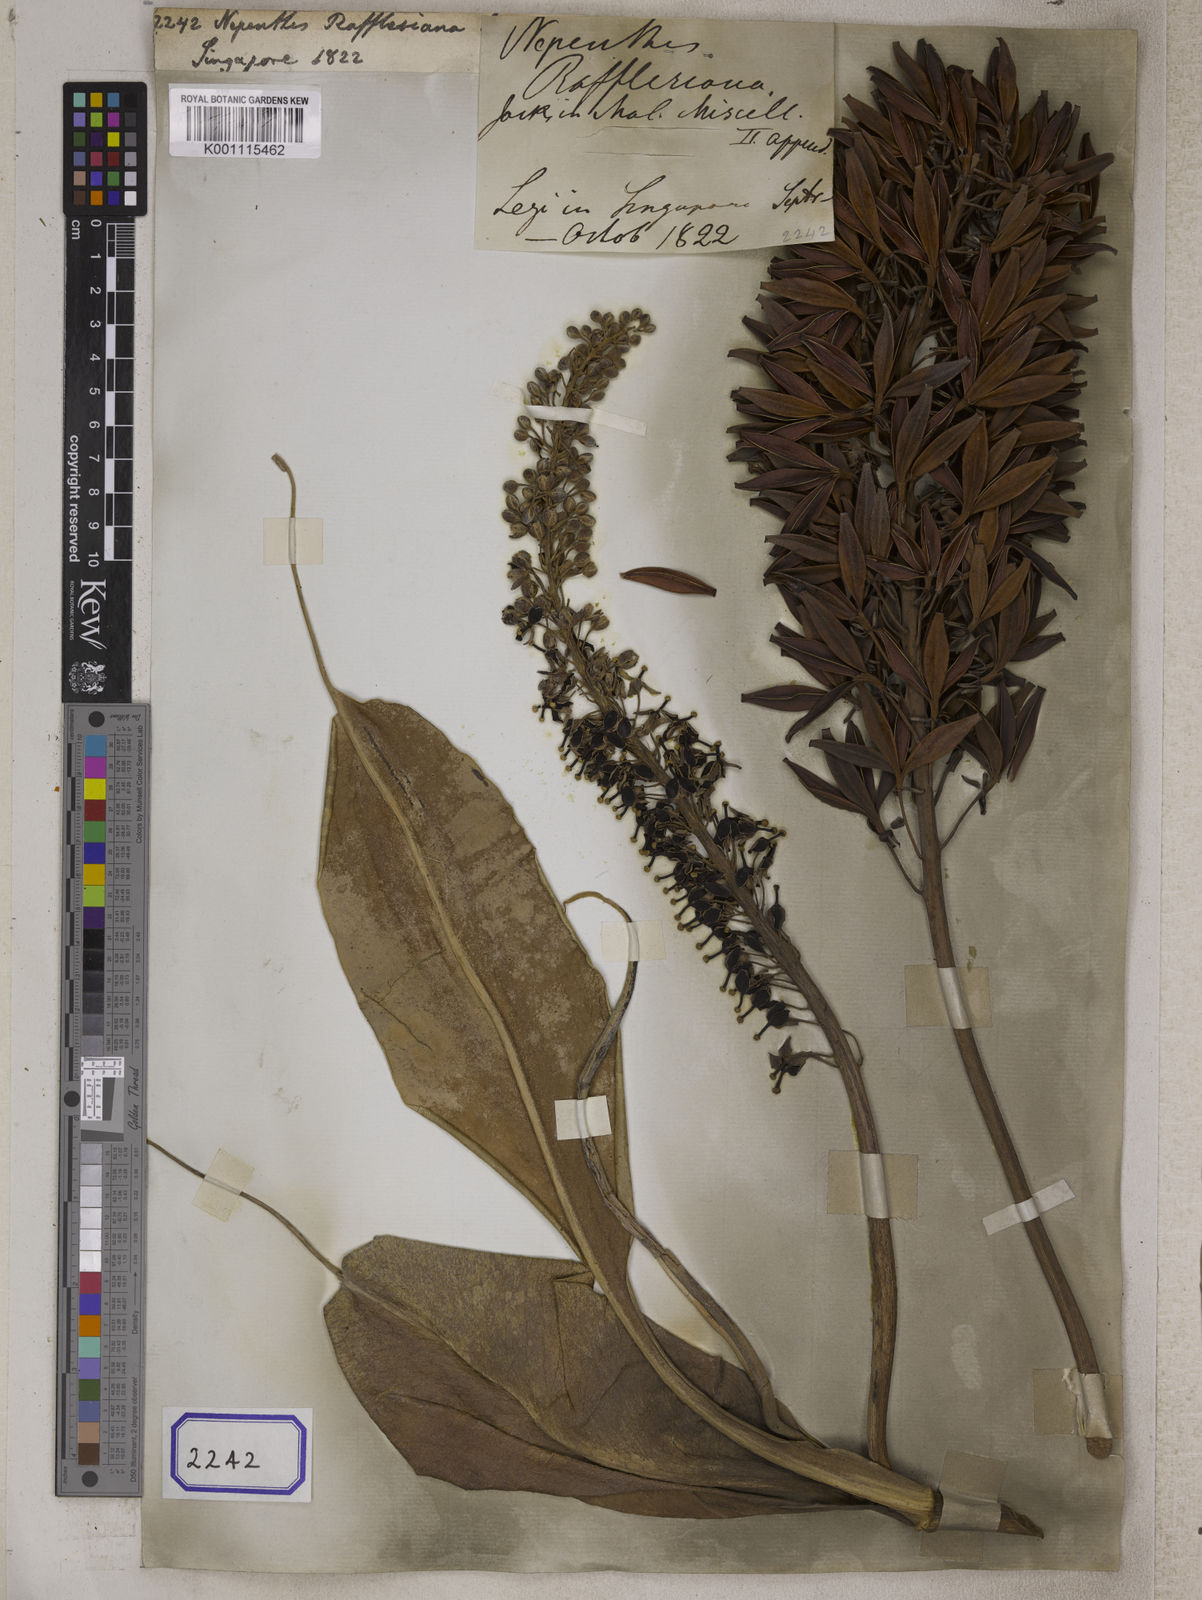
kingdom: Plantae
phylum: Tracheophyta
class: Magnoliopsida
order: Caryophyllales
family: Nepenthaceae
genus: Nepenthes
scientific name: Nepenthes rafflesiana
